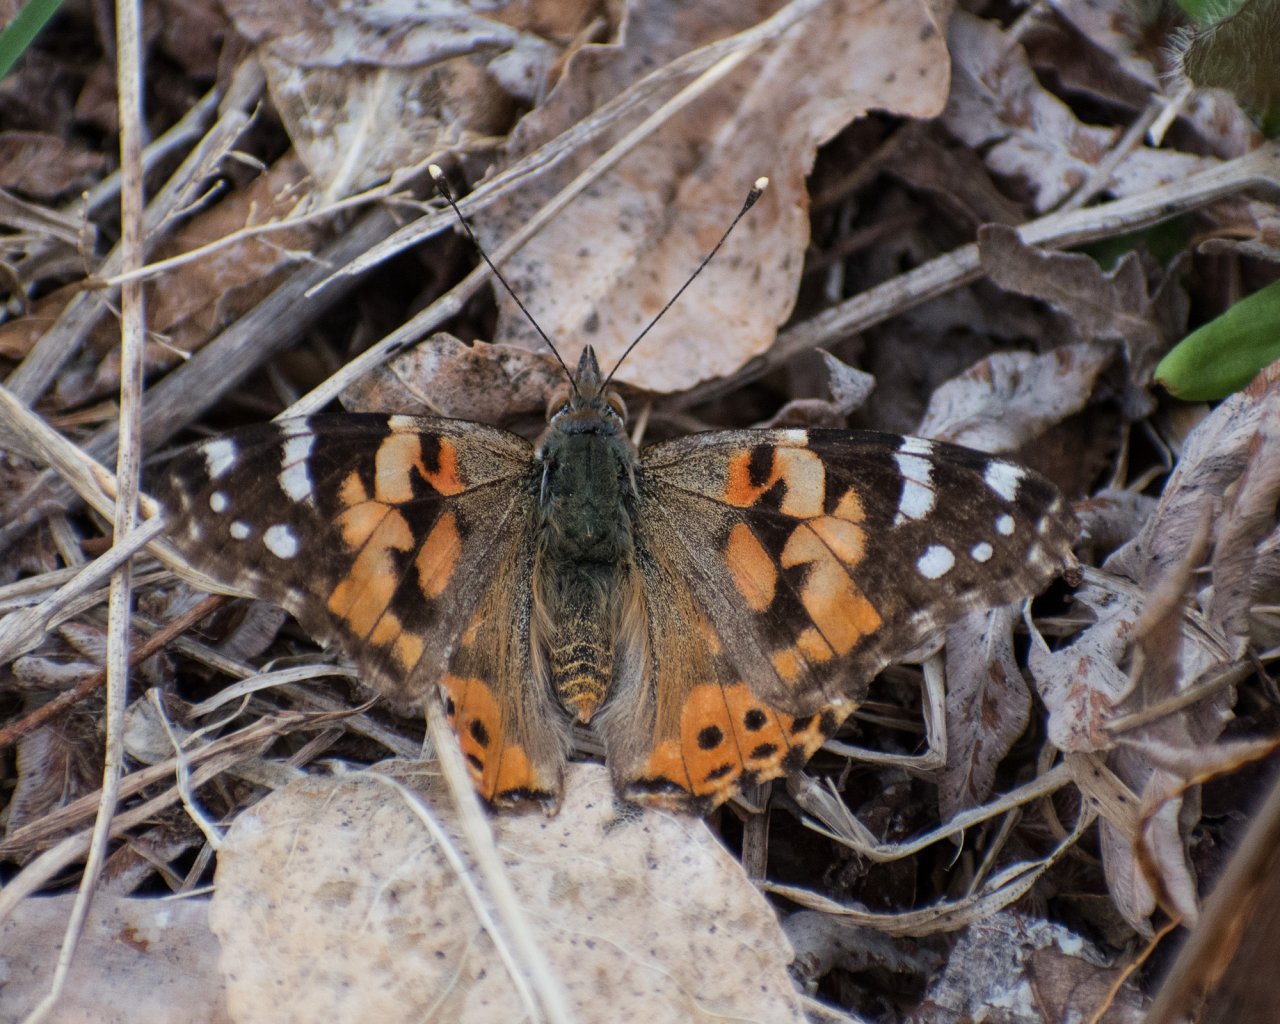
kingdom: Animalia
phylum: Arthropoda
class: Insecta
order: Lepidoptera
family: Nymphalidae
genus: Vanessa
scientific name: Vanessa cardui
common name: Painted Lady
